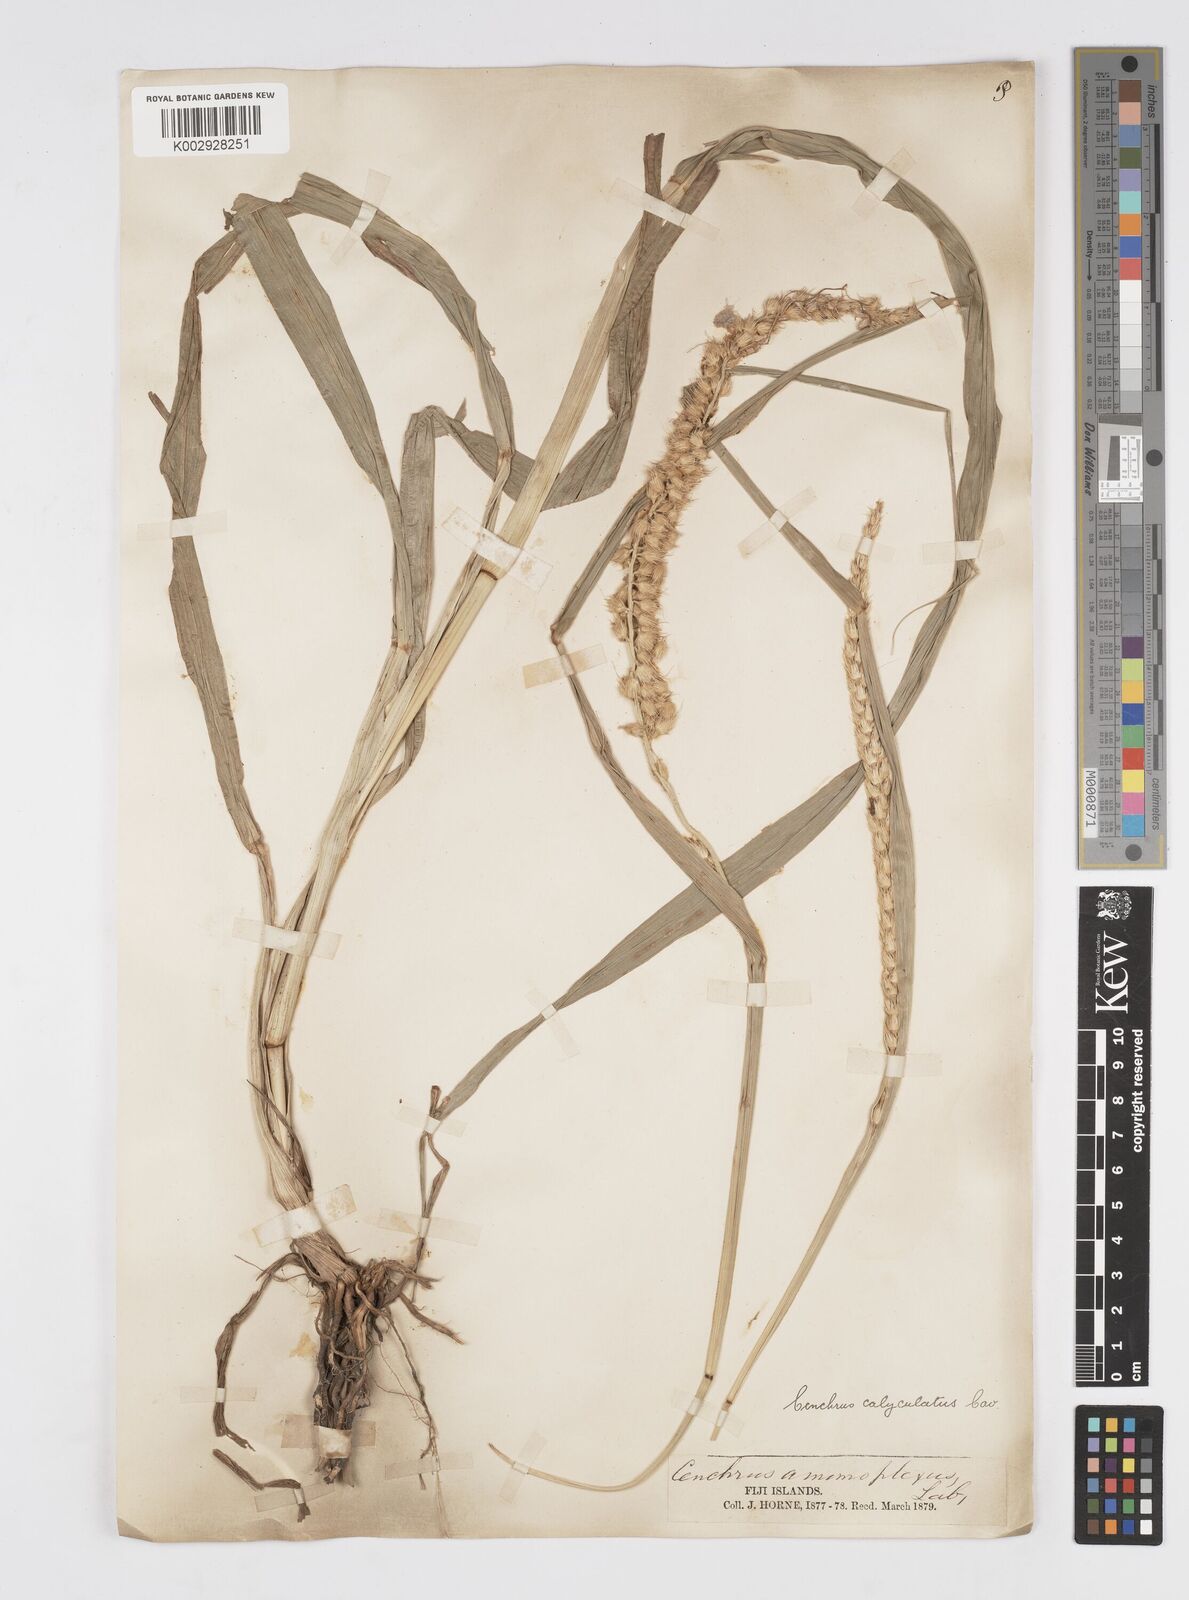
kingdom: Plantae
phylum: Tracheophyta
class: Liliopsida
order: Poales
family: Poaceae
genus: Cenchrus
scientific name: Cenchrus caliculatus
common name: Large bur grass
